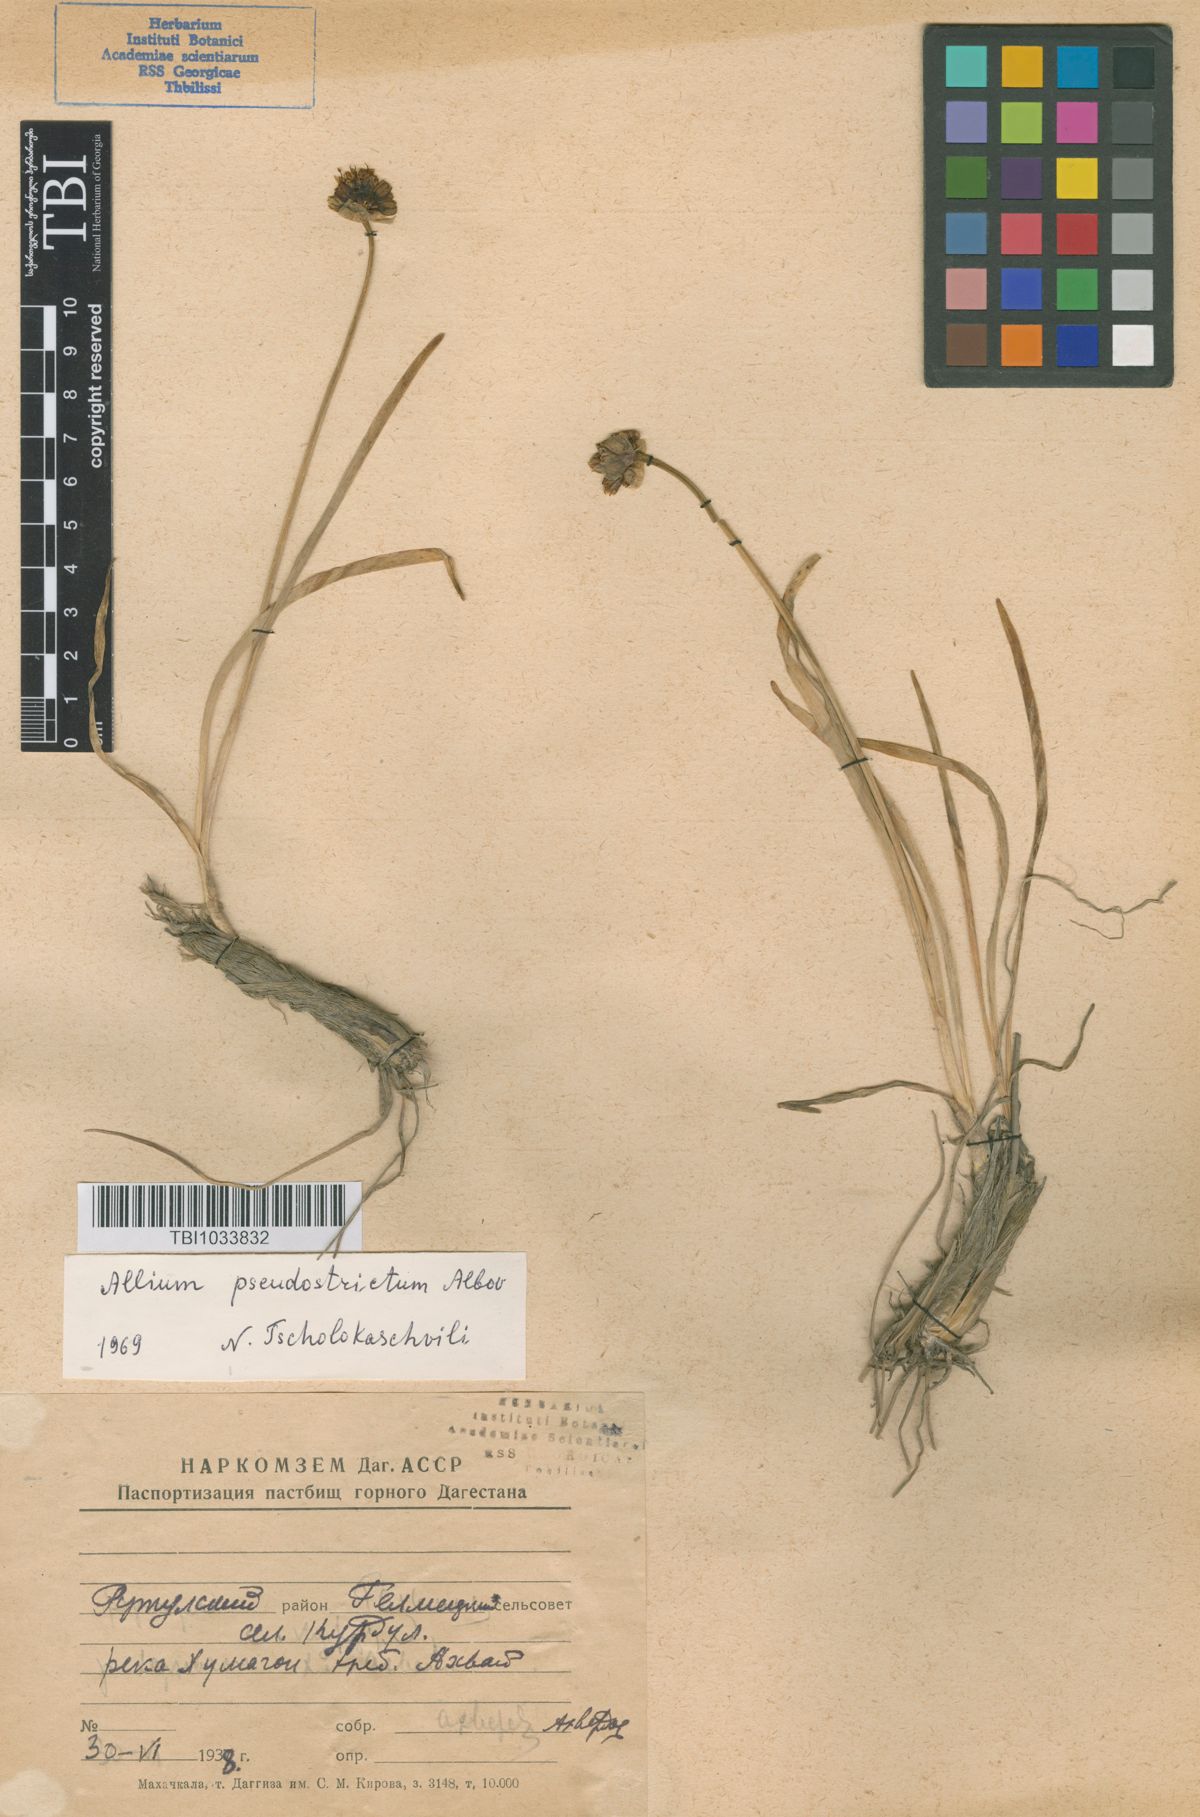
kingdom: Plantae
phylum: Tracheophyta
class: Liliopsida
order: Asparagales
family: Amaryllidaceae
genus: Allium
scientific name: Allium pseudostrictum
